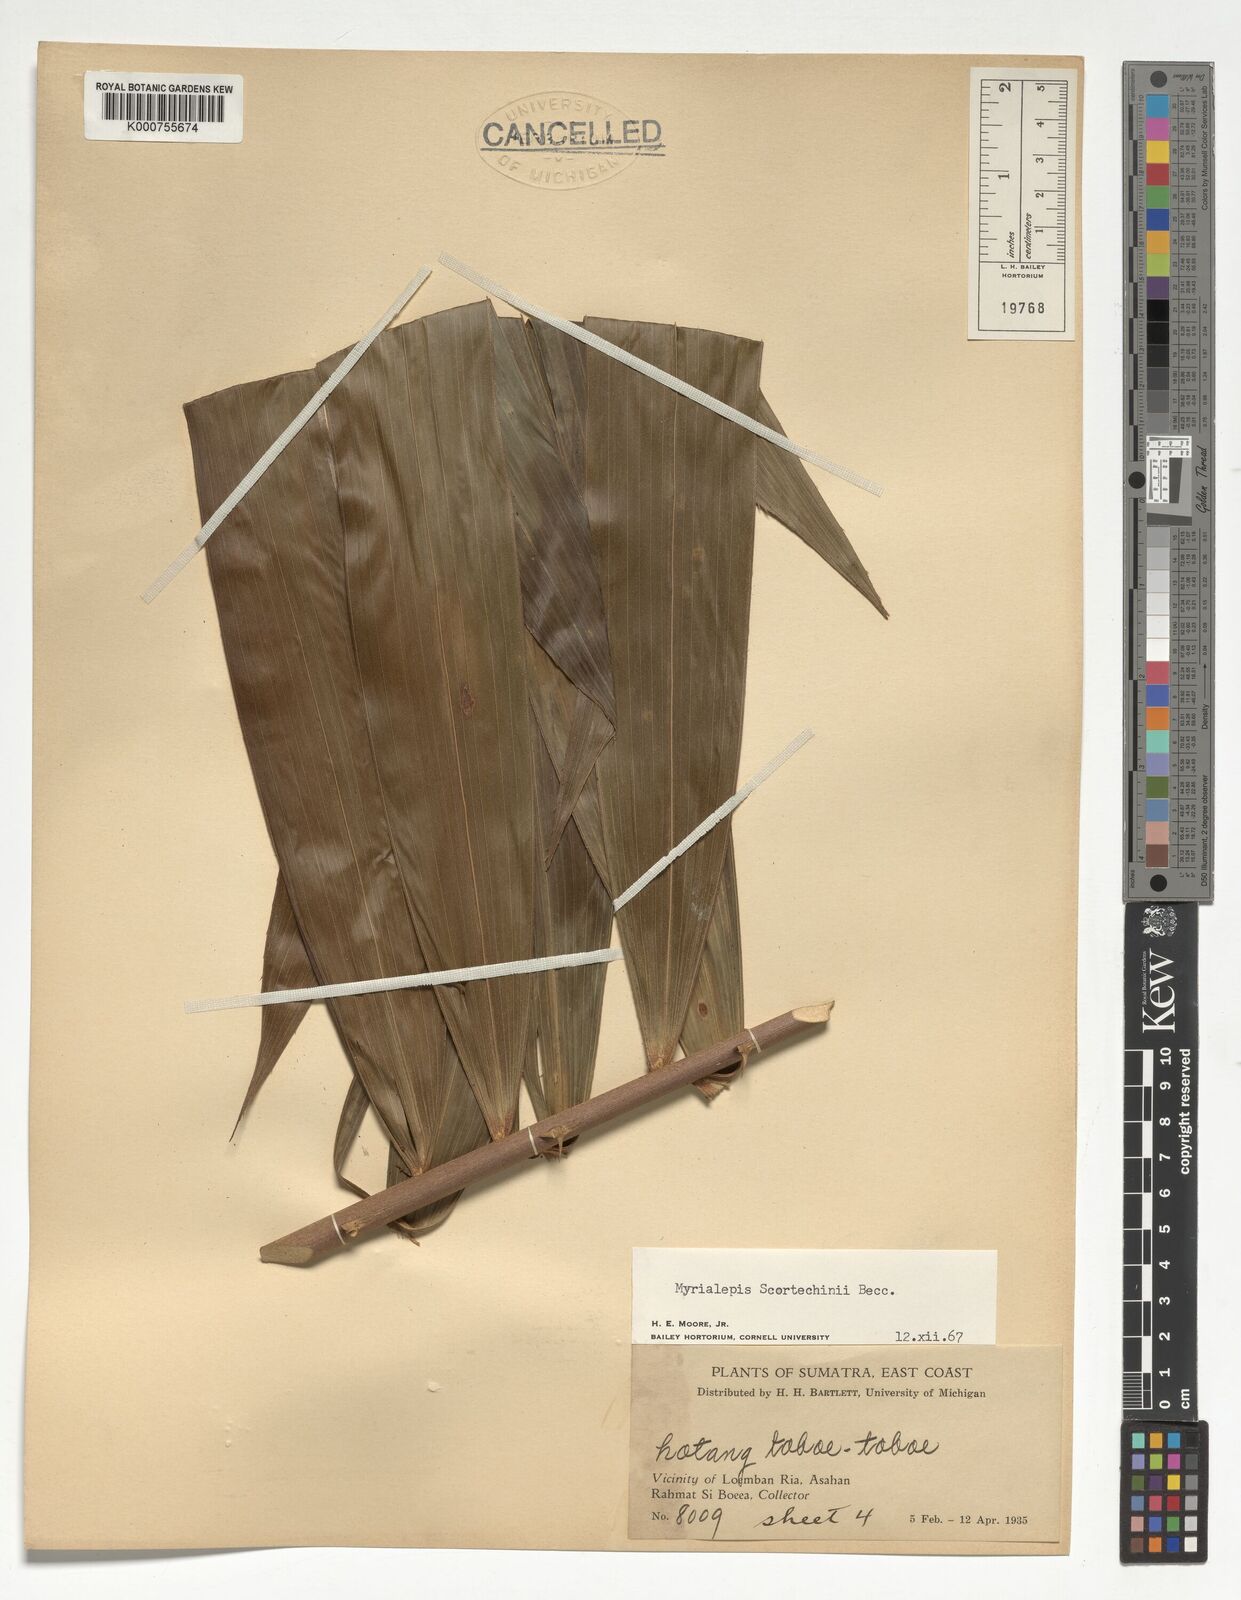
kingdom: Plantae
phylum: Tracheophyta
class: Liliopsida
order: Arecales
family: Arecaceae
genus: Myrialepis
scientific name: Myrialepis paradoxa
